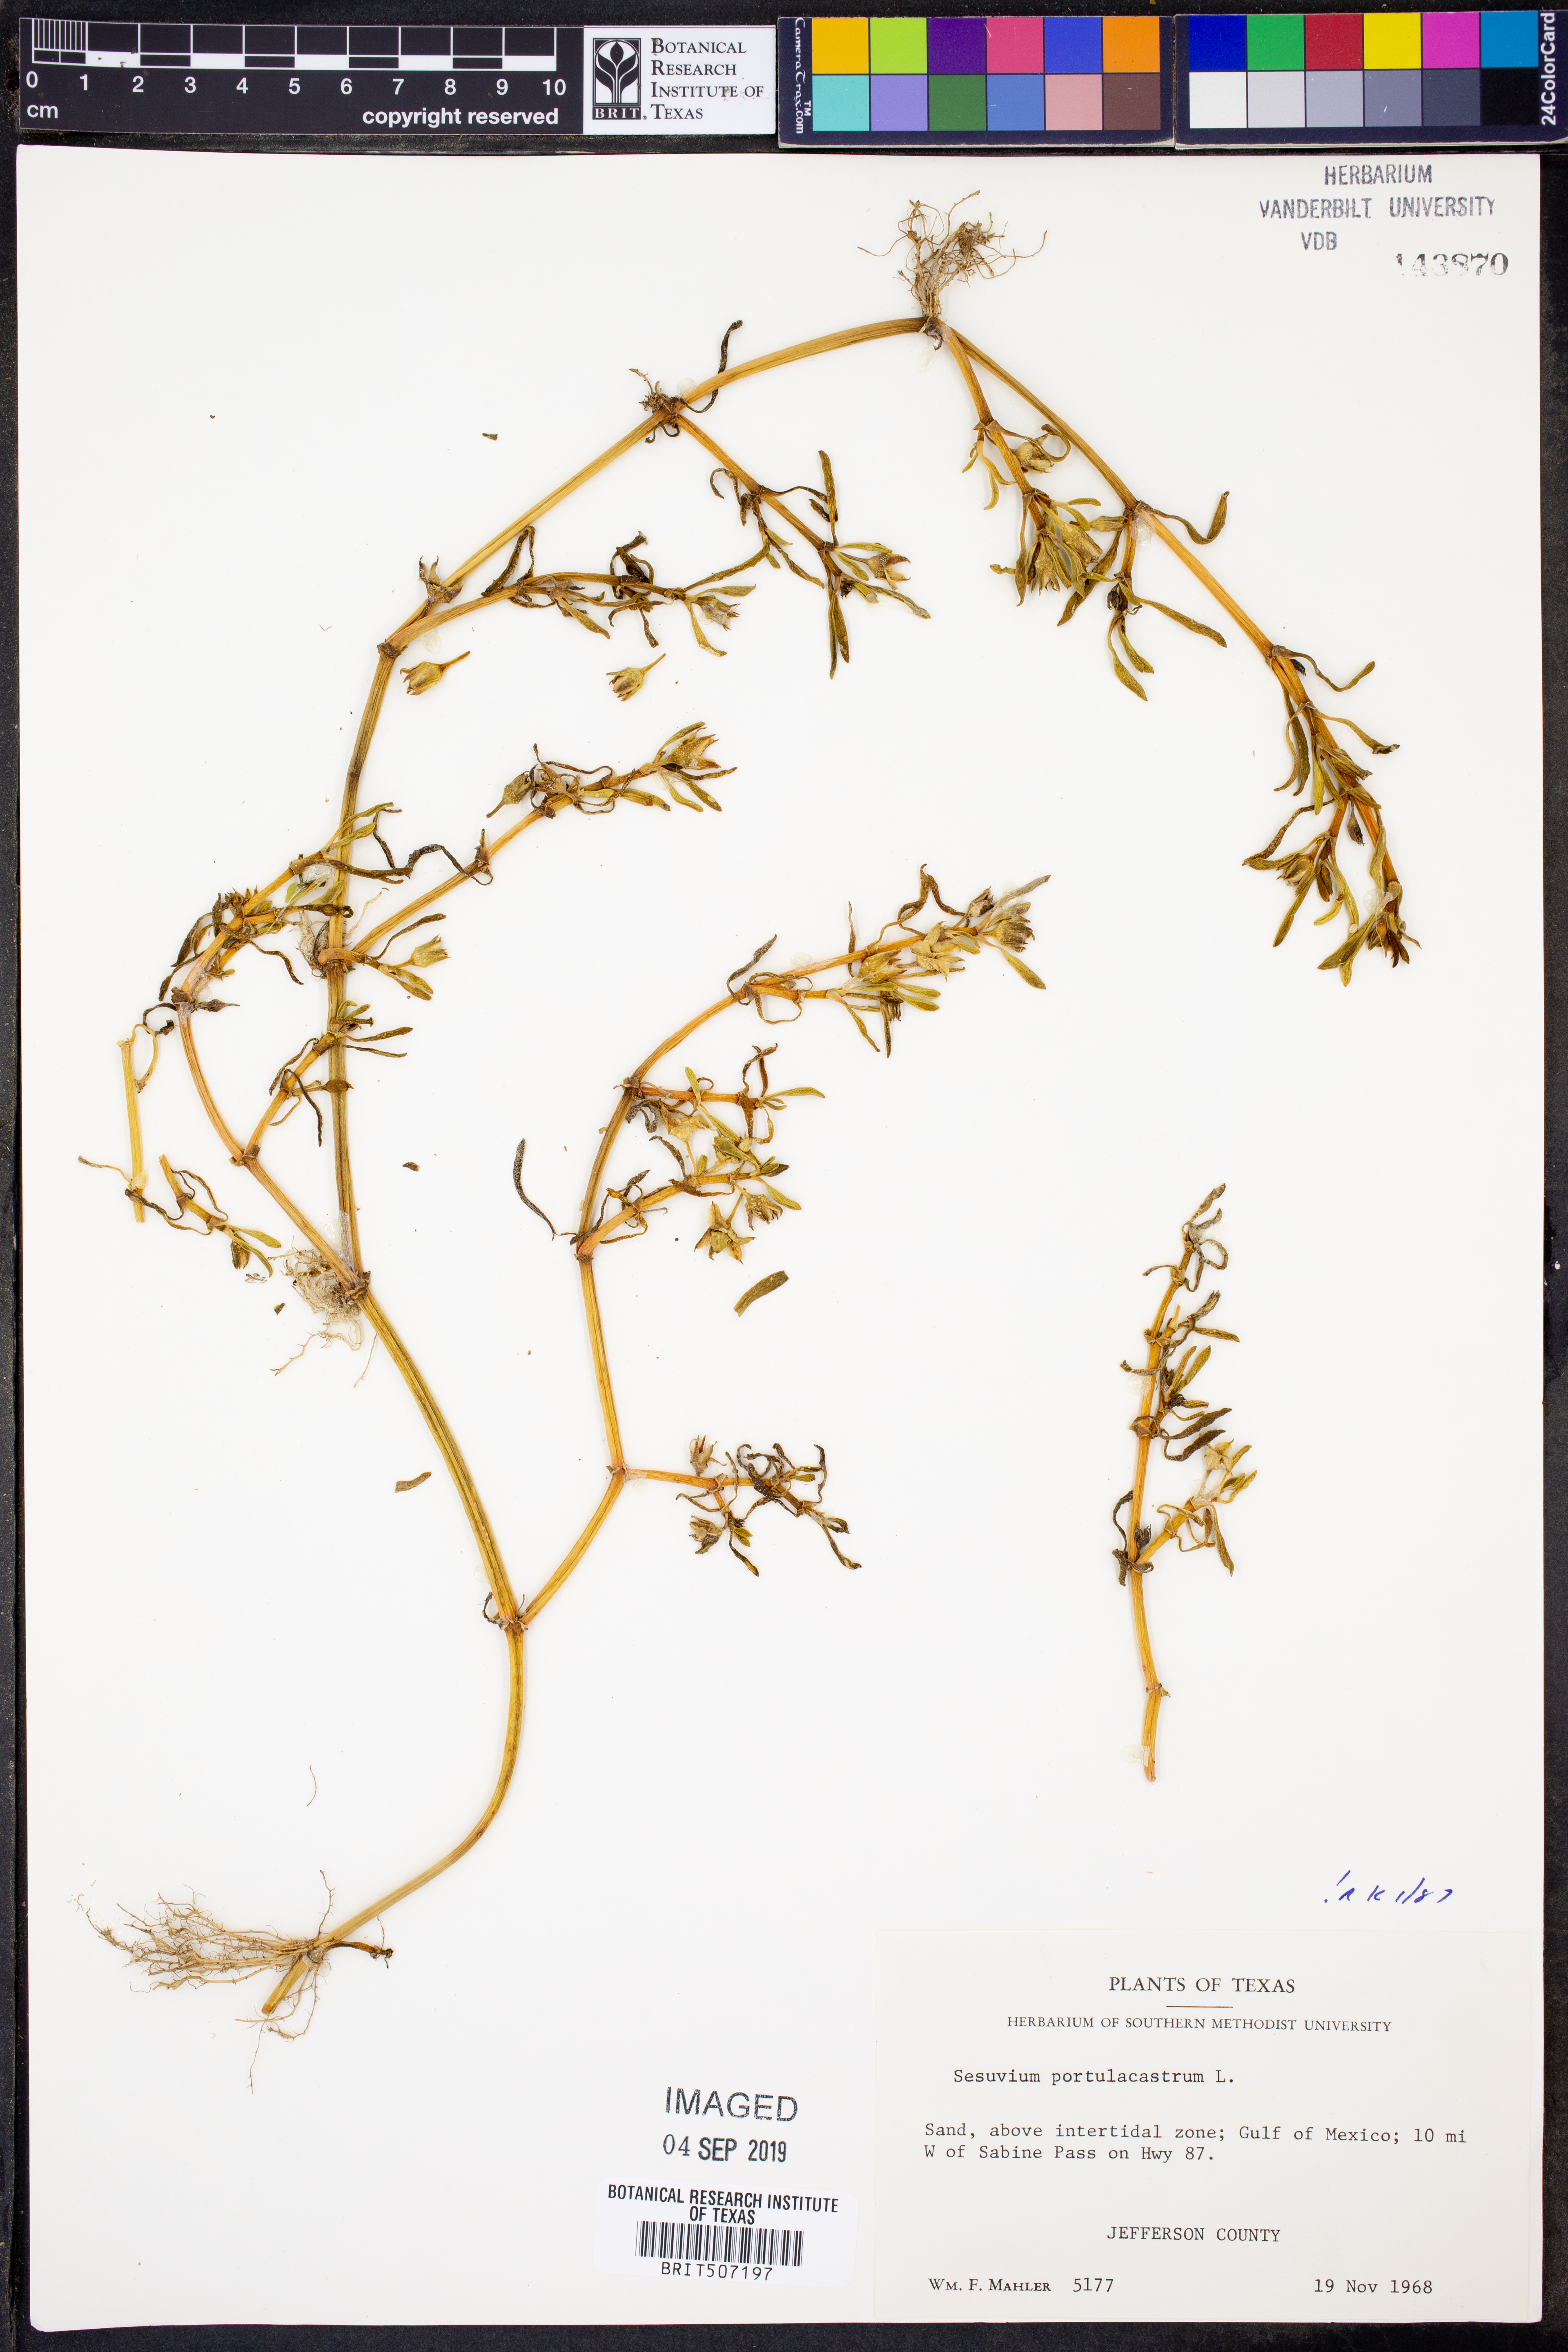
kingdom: Plantae
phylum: Tracheophyta
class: Magnoliopsida
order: Caryophyllales
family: Aizoaceae
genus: Sesuvium
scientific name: Sesuvium portulacastrum
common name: Sea-purslane
